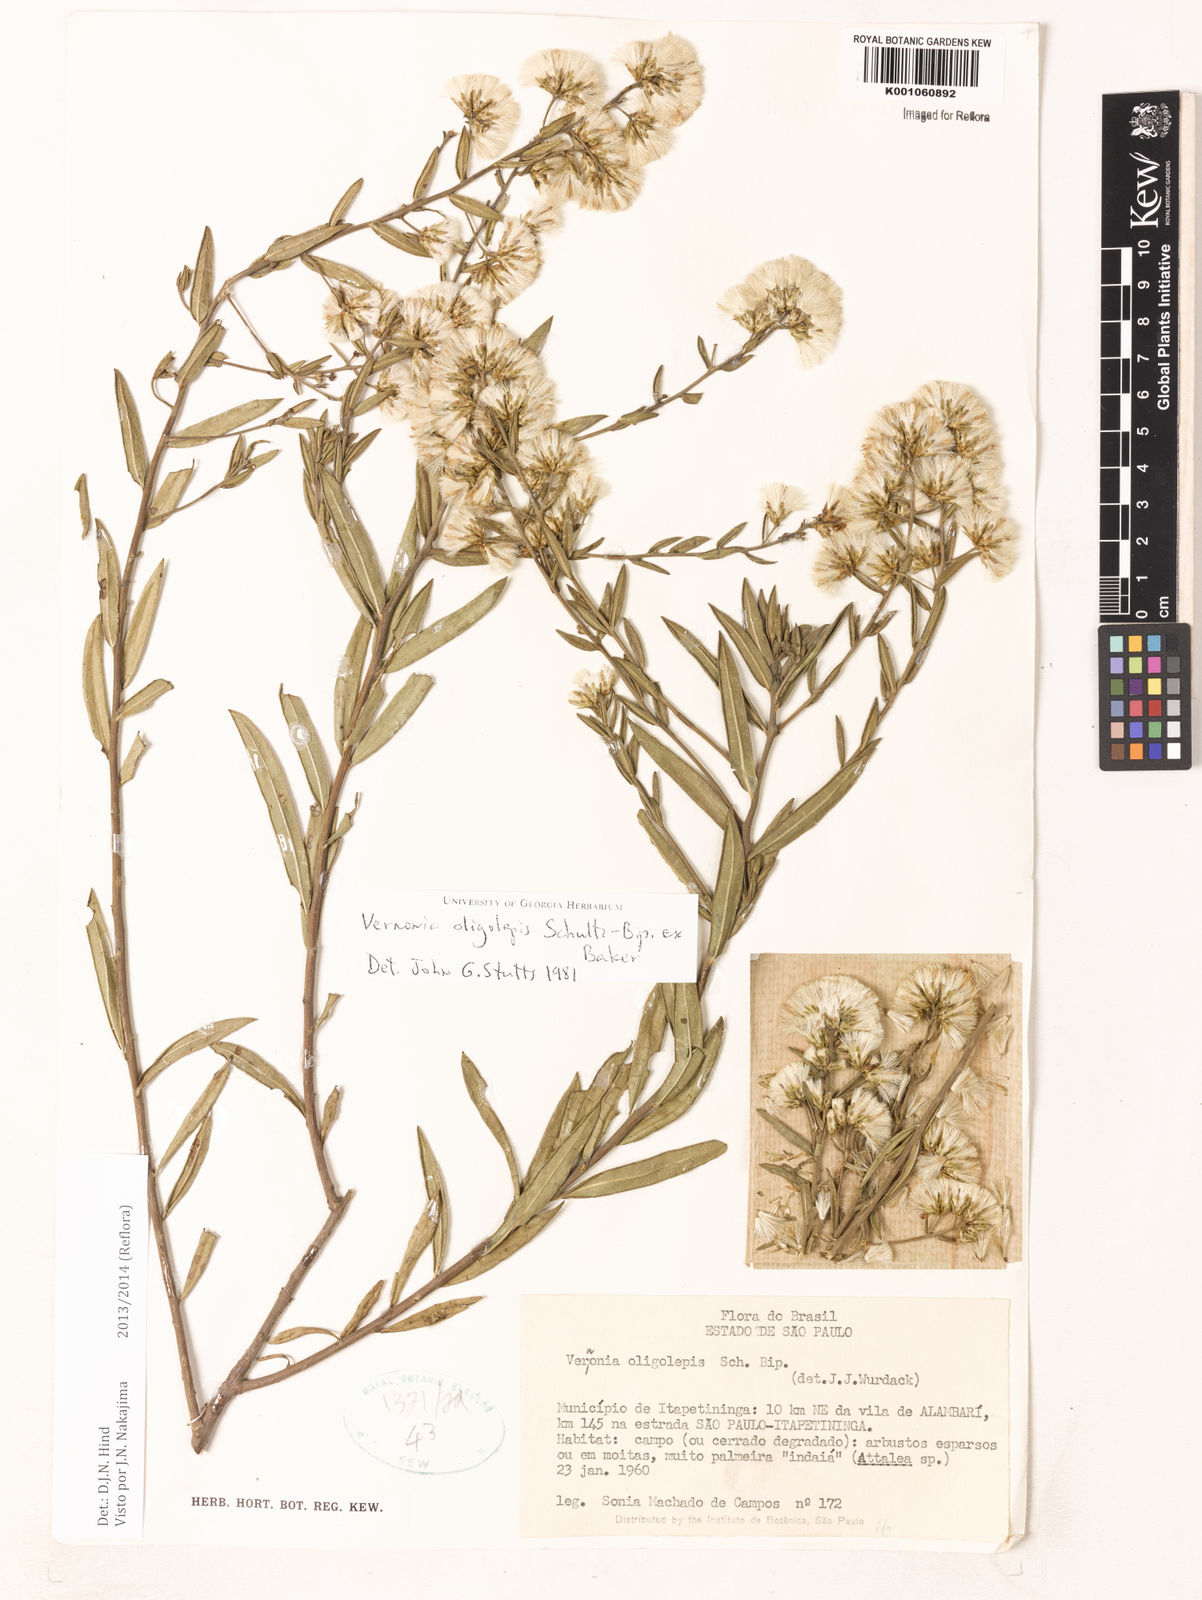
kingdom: Plantae
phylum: Tracheophyta
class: Magnoliopsida
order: Asterales
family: Asteraceae
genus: Vernonanthura
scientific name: Vernonanthura oligolepis
